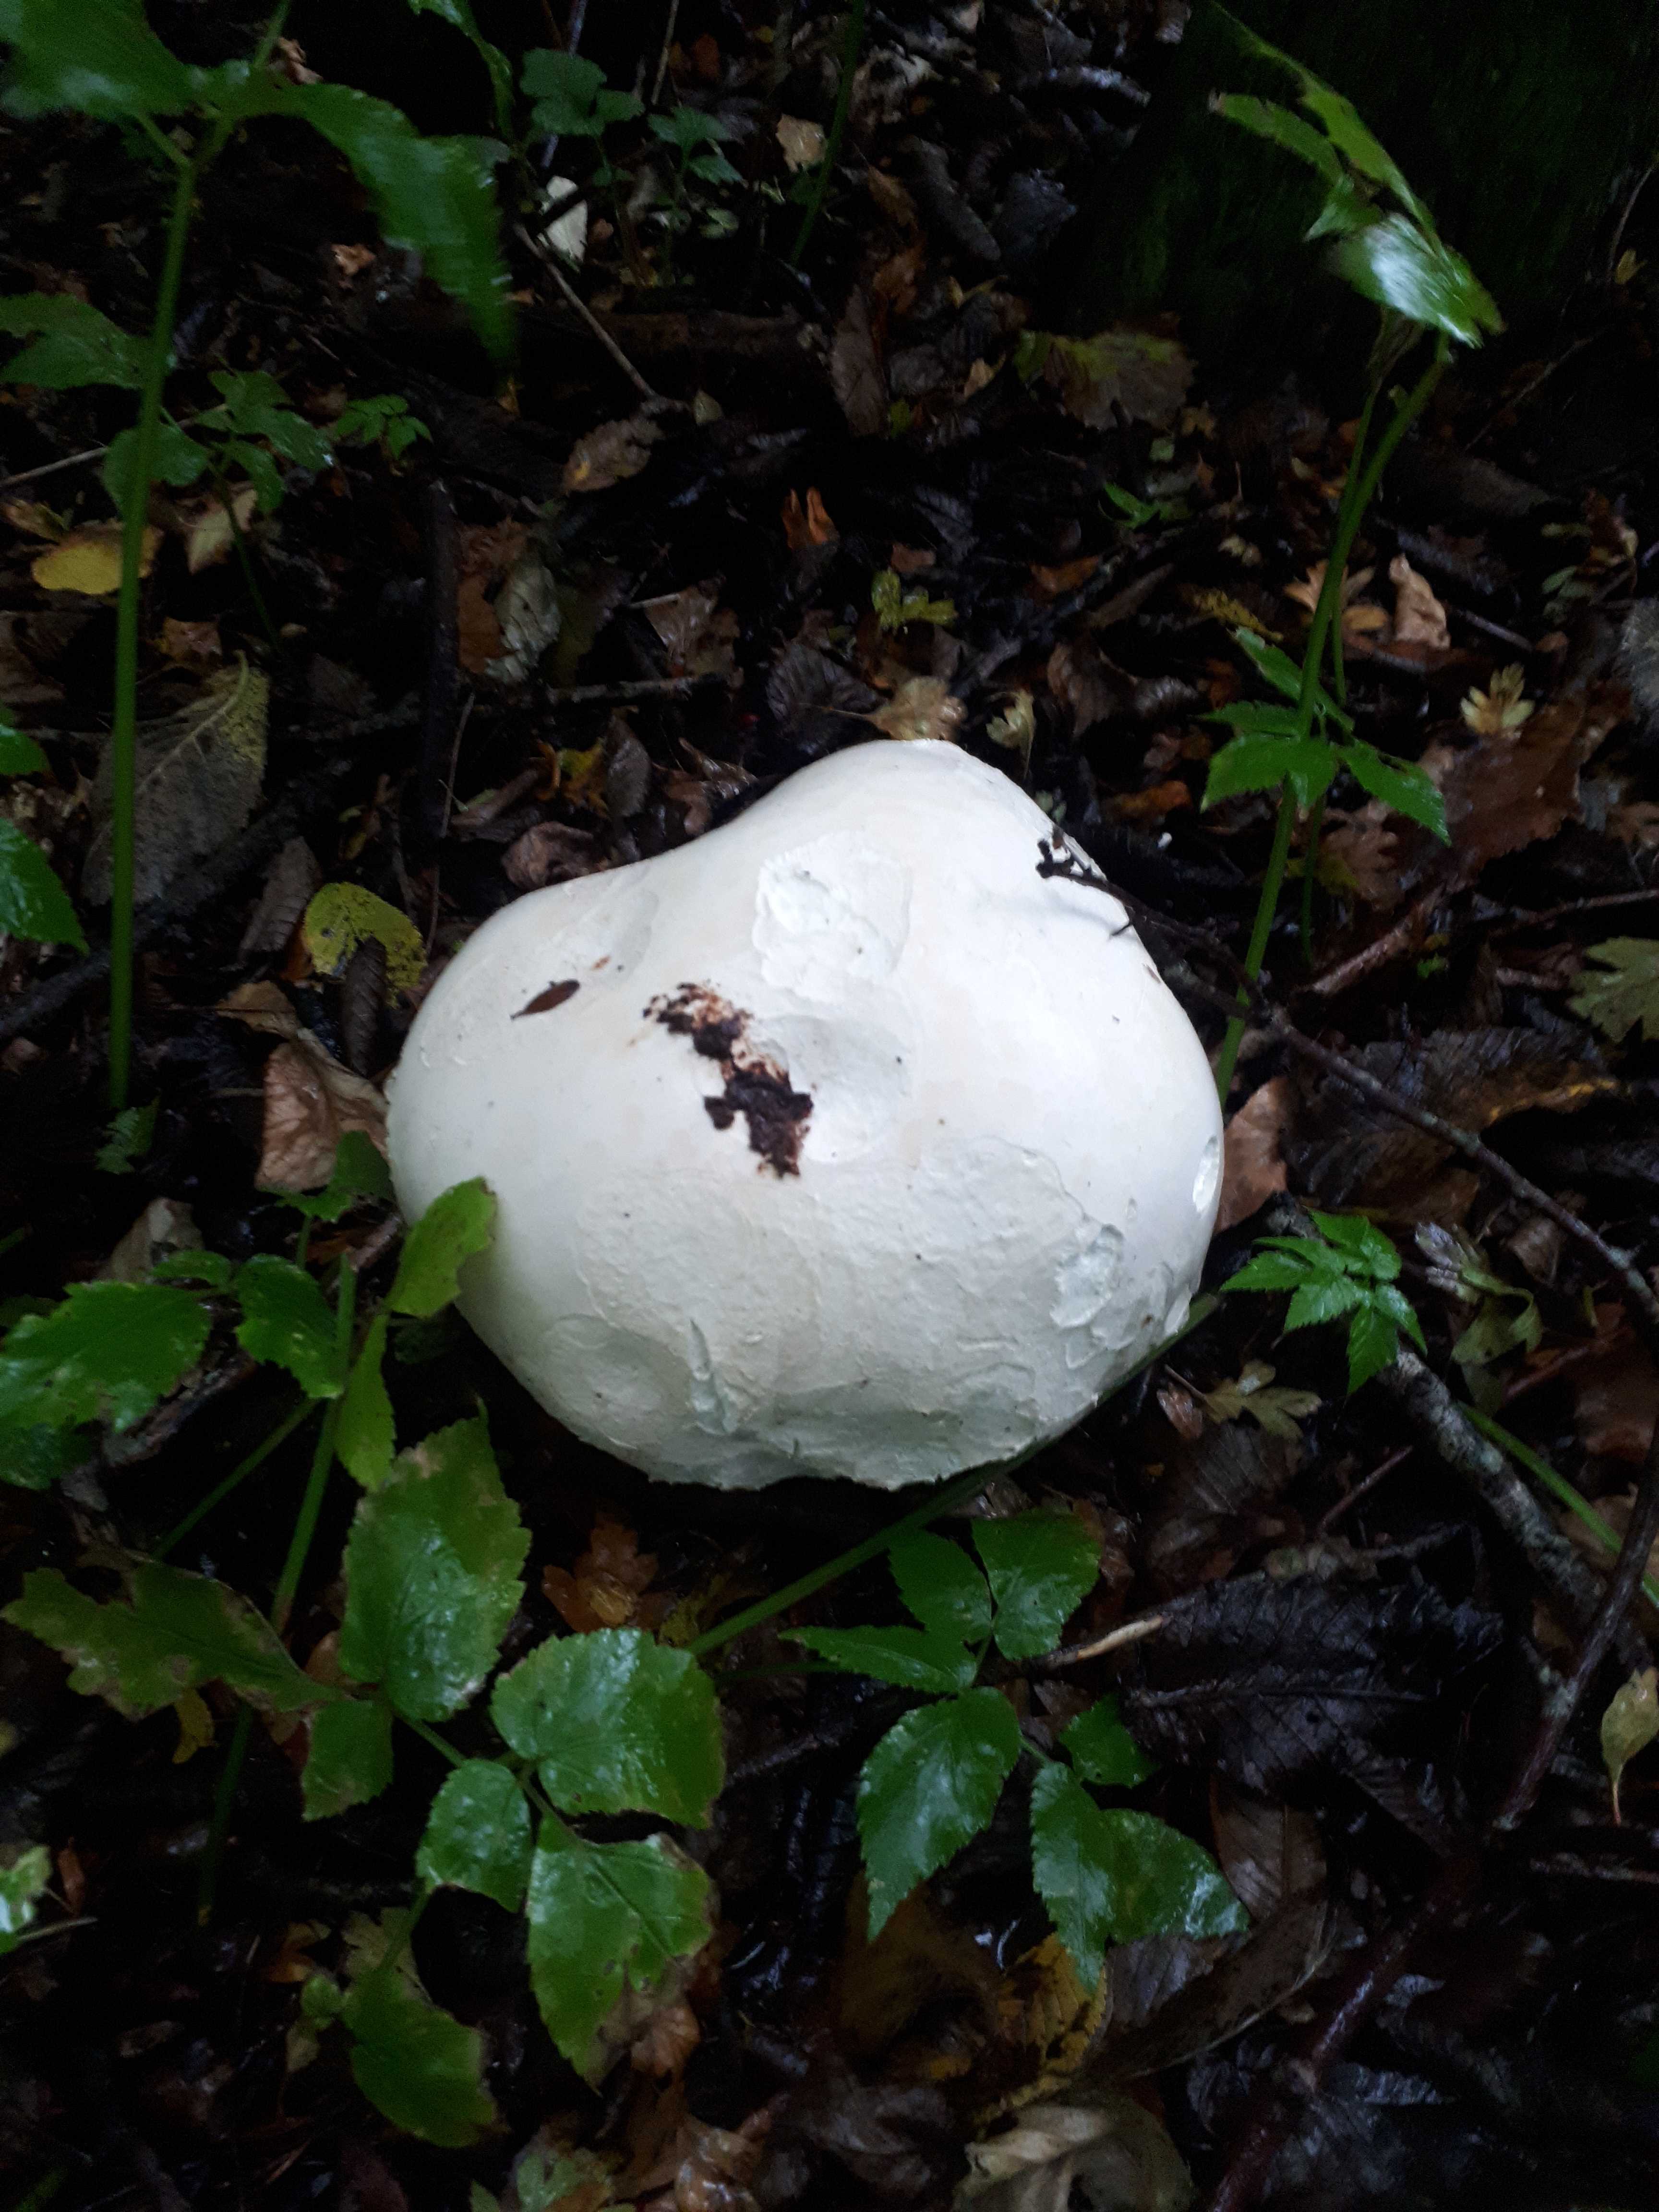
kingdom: Fungi
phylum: Basidiomycota
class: Agaricomycetes
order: Agaricales
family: Lycoperdaceae
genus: Calvatia
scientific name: Calvatia gigantea
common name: kæmpestøvbold
